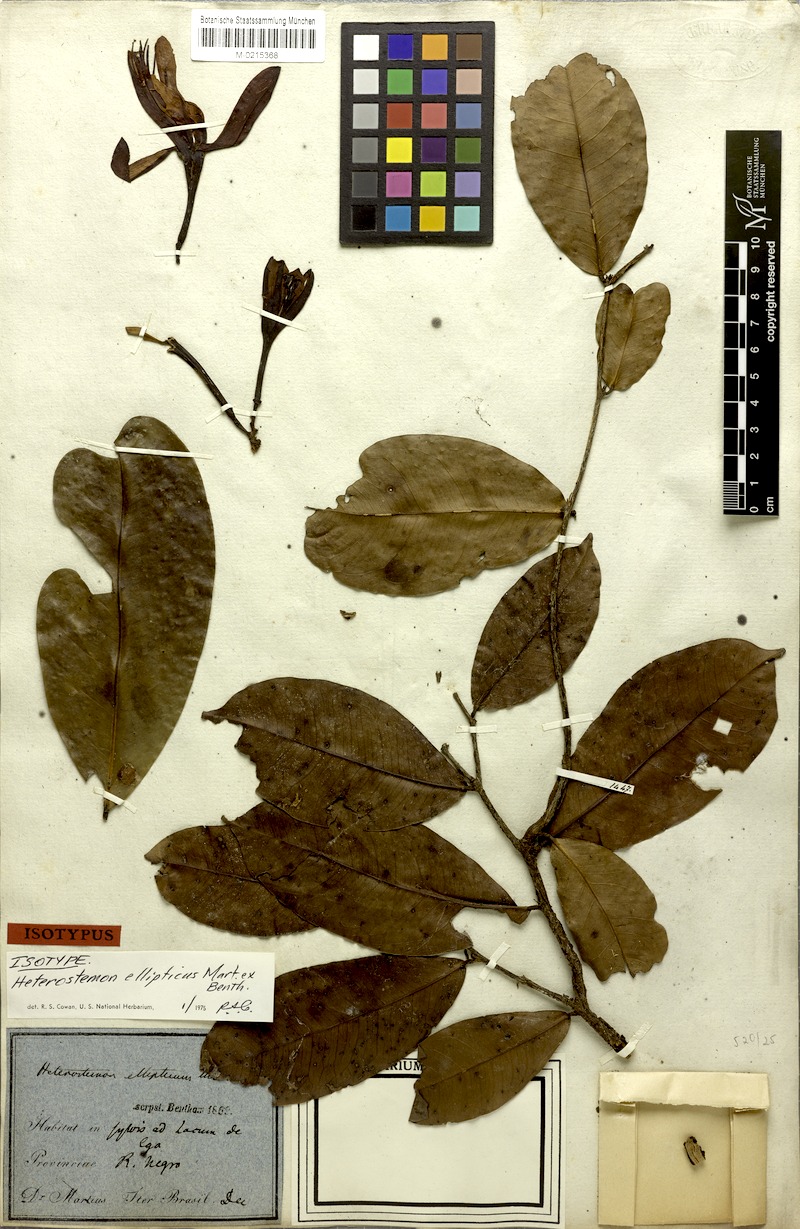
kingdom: Plantae
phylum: Tracheophyta
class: Magnoliopsida
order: Fabales
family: Fabaceae
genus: Heterostemon
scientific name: Heterostemon ellipticus
